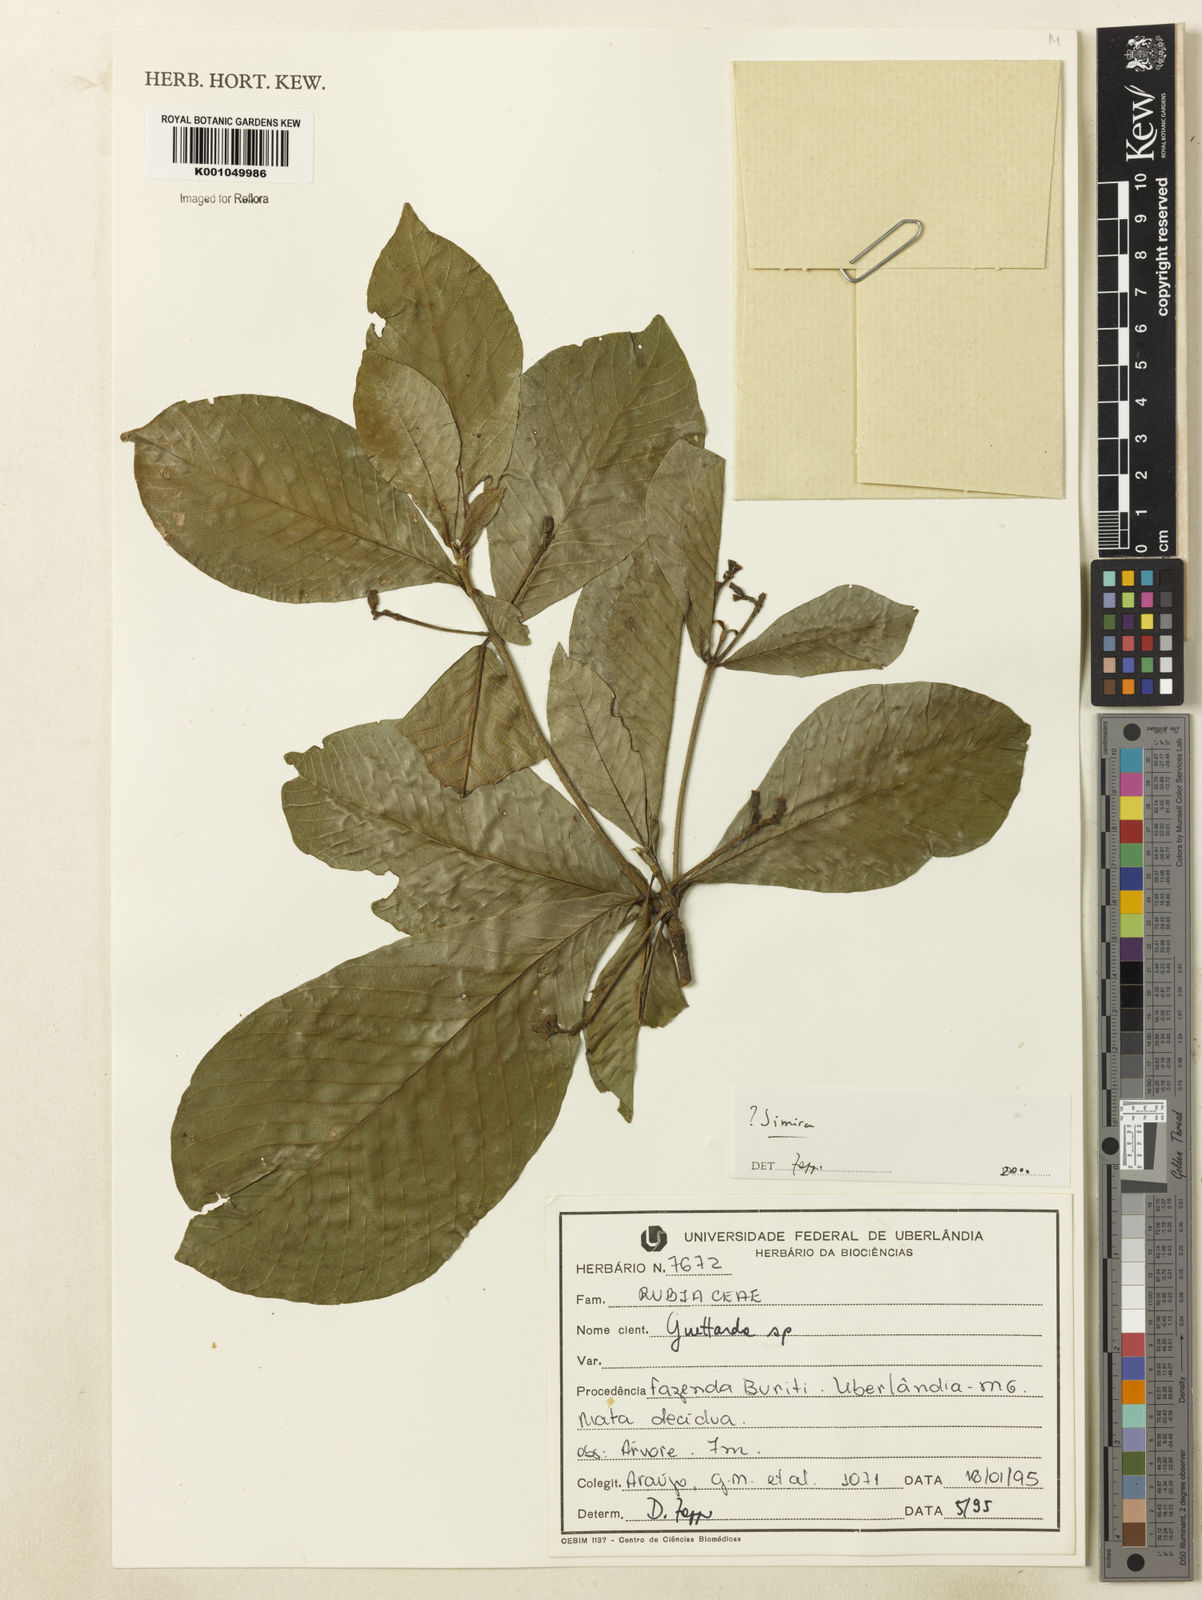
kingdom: Plantae
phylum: Tracheophyta
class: Magnoliopsida
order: Gentianales
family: Rubiaceae
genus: Simira
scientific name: Simira
